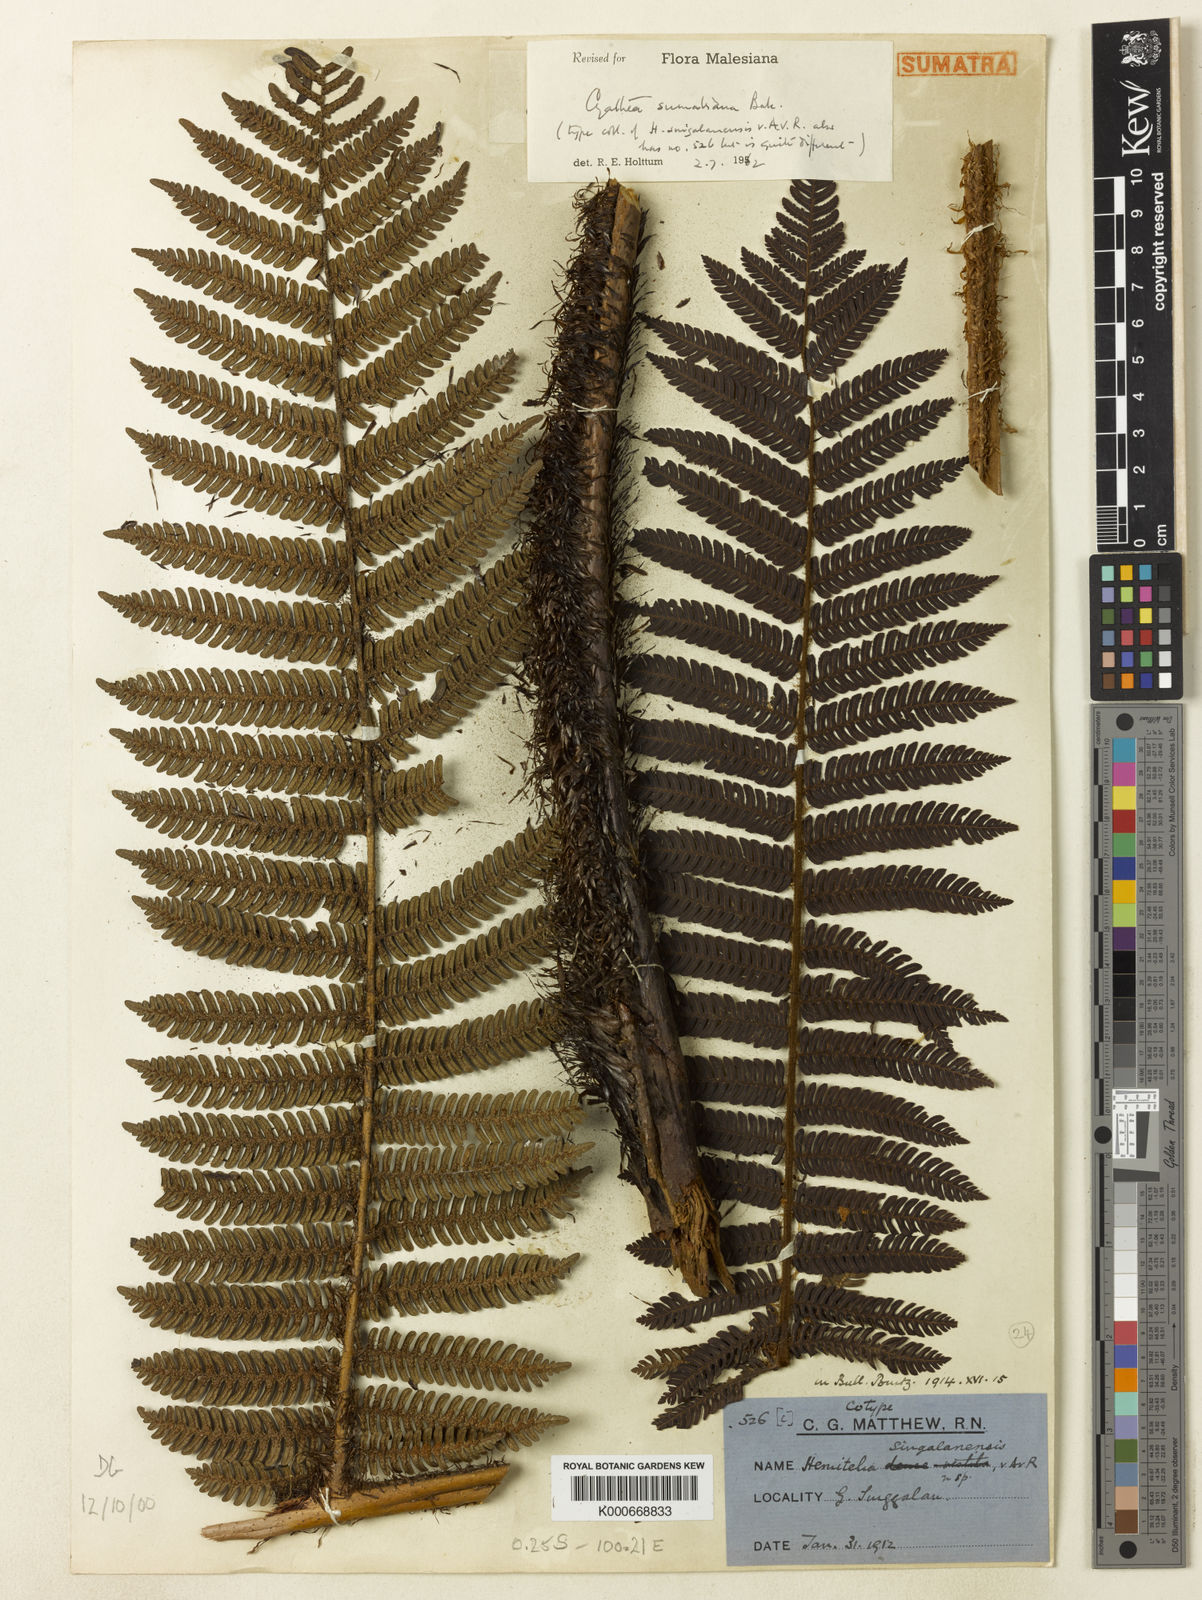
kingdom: Plantae
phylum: Tracheophyta
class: Polypodiopsida
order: Cyatheales
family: Cyatheaceae
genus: Alsophila
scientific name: Alsophila sumatrana
